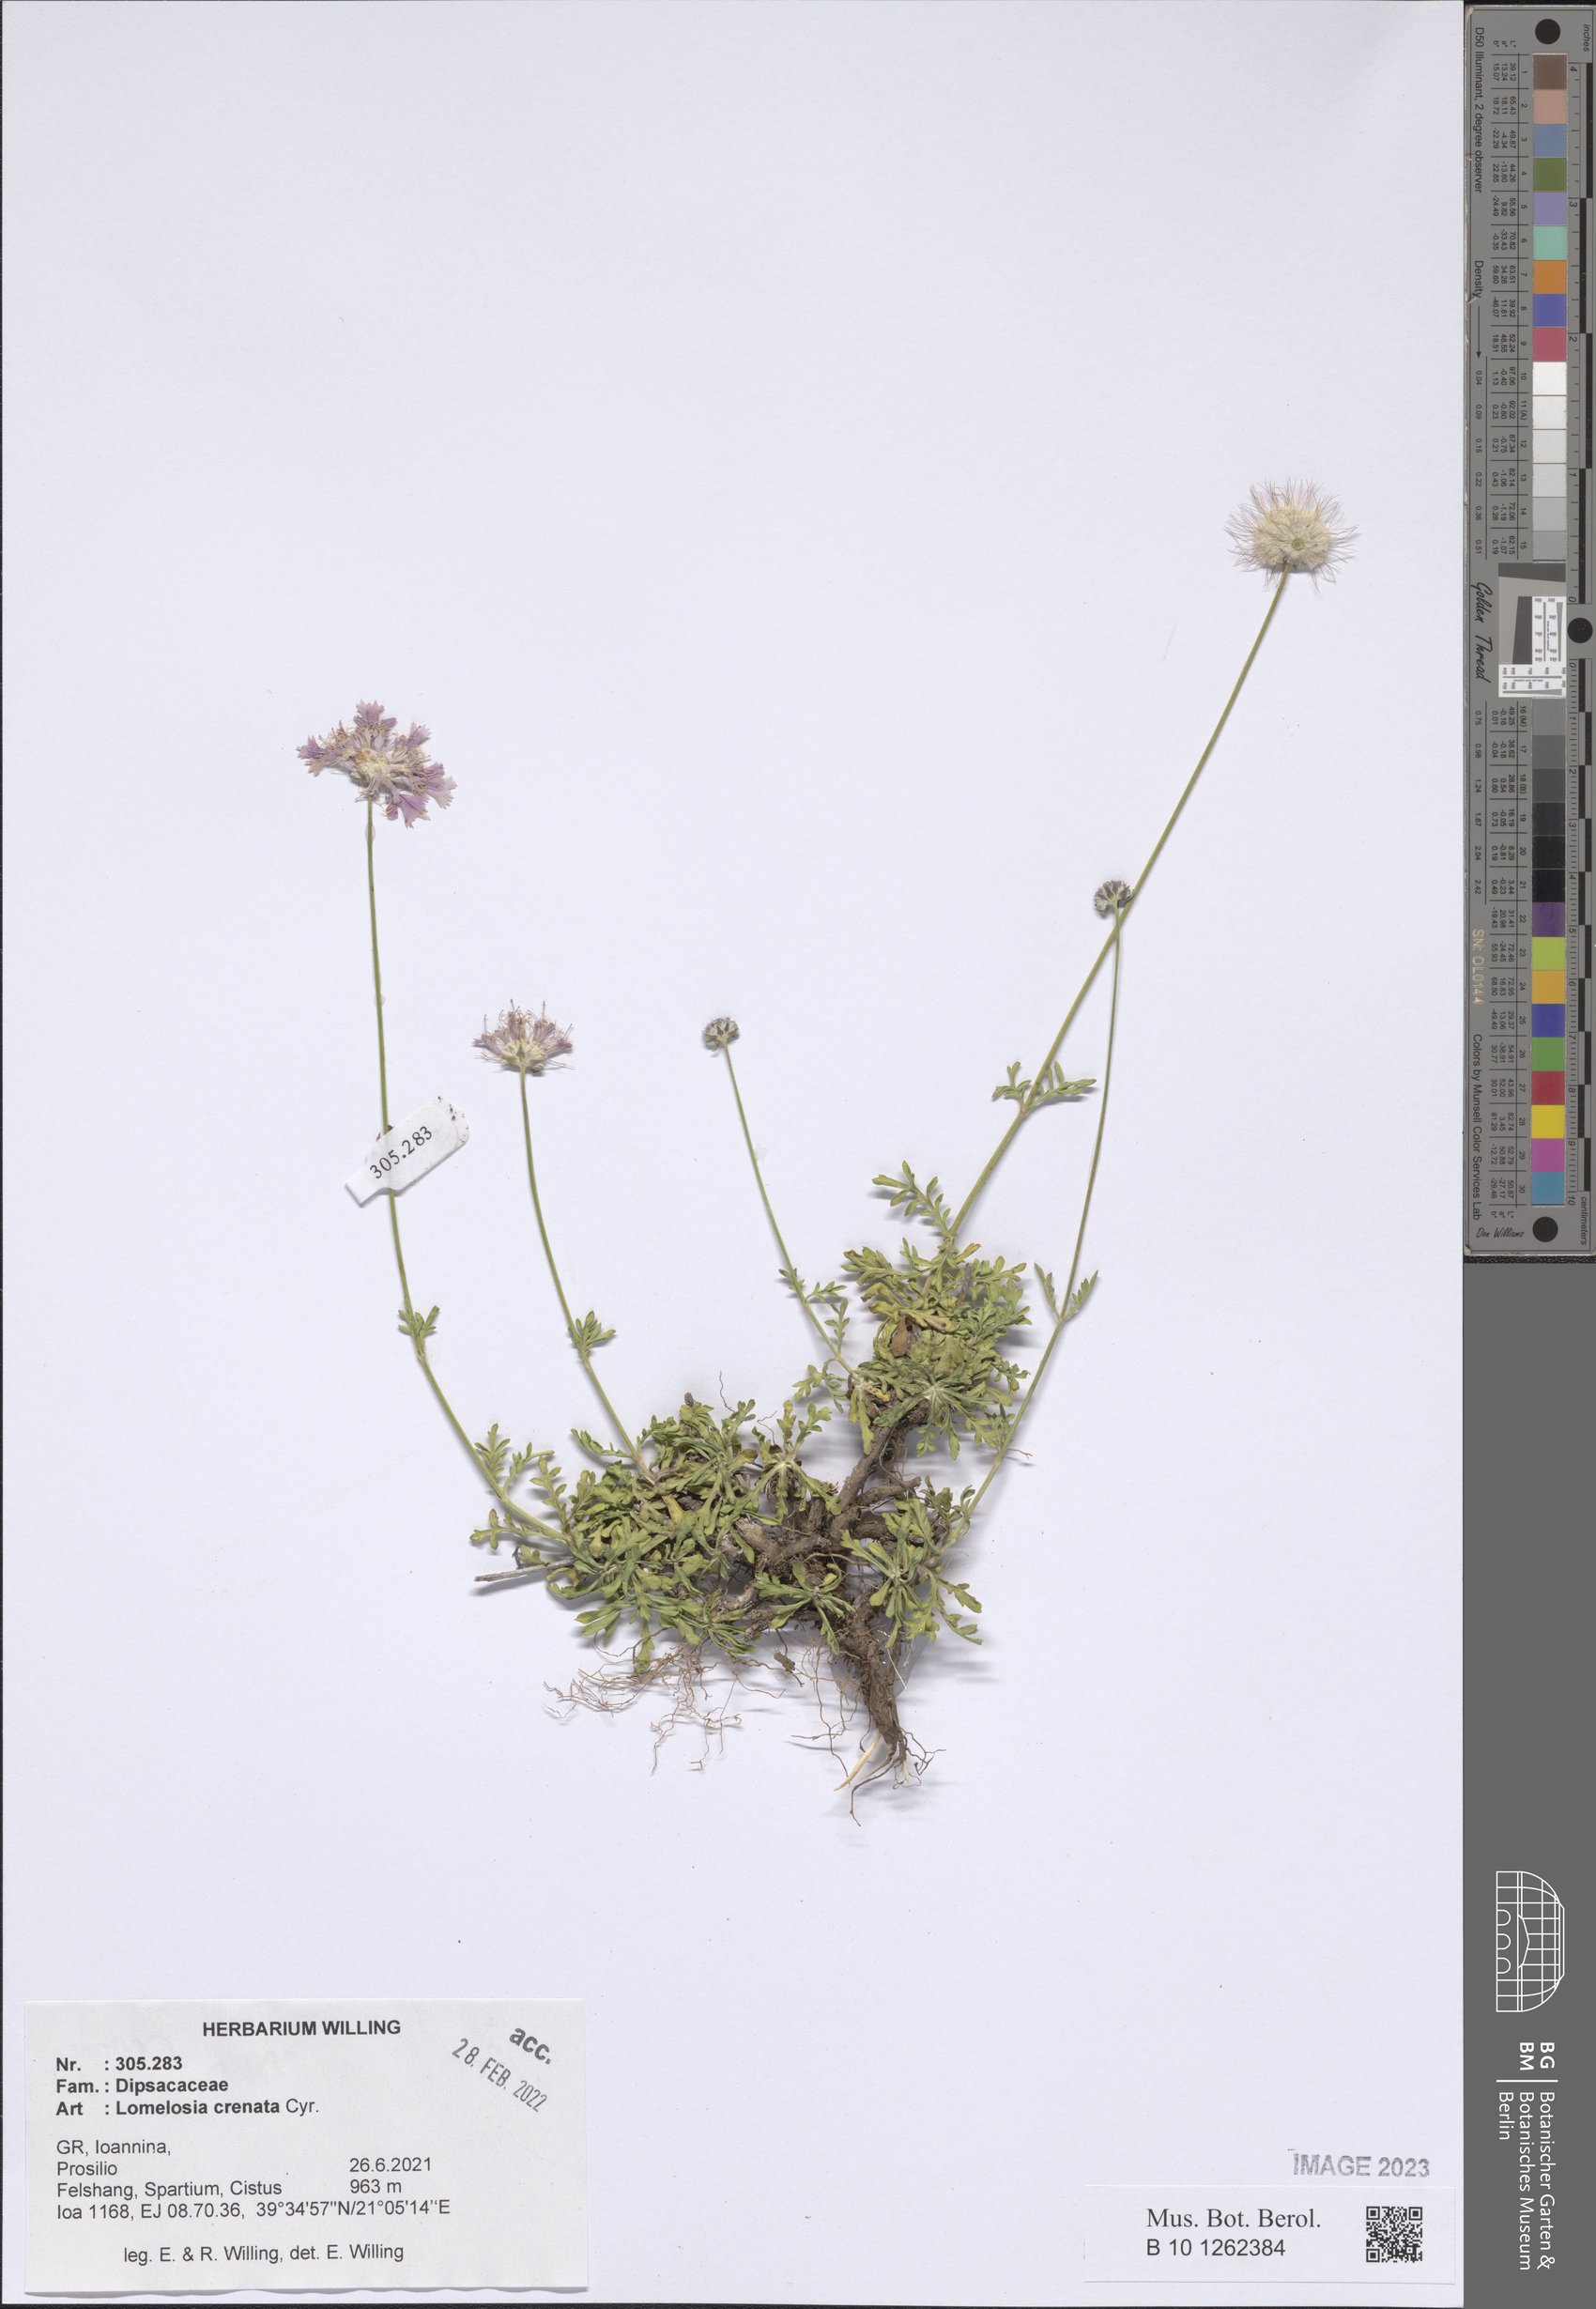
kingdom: Plantae
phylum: Tracheophyta
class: Magnoliopsida
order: Dipsacales
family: Caprifoliaceae
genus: Lomelosia
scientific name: Lomelosia crenata
